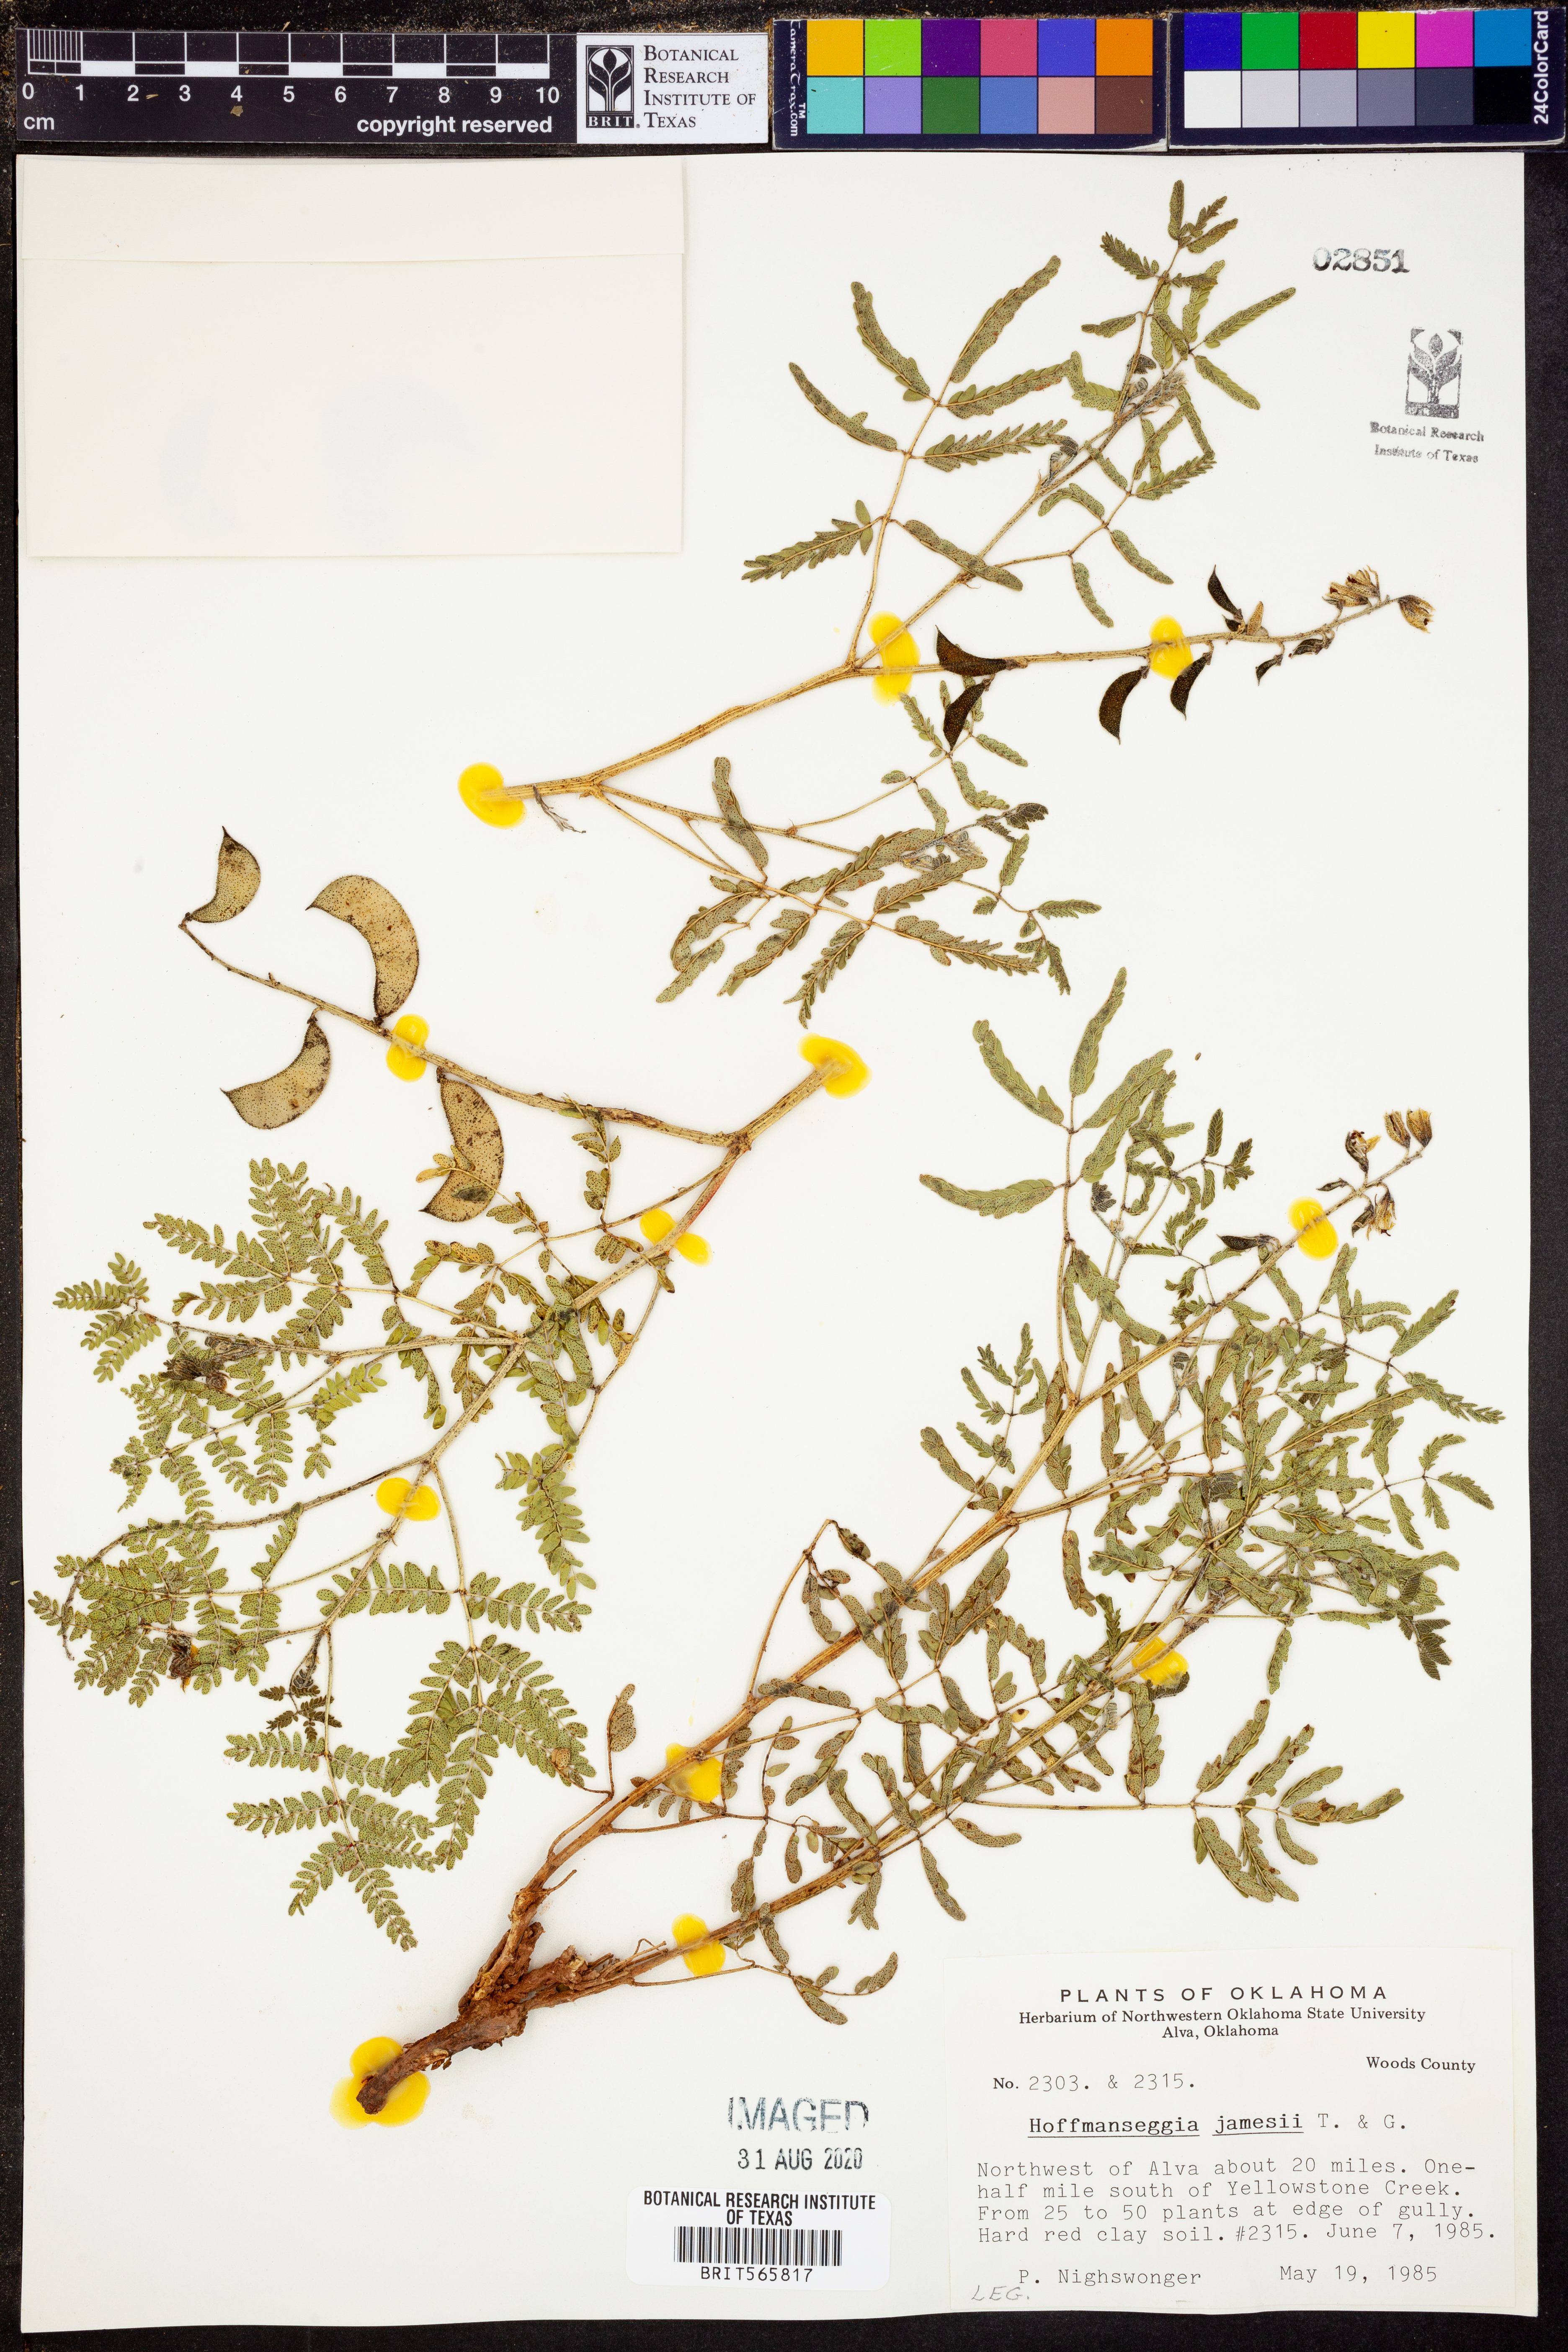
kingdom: Plantae
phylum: Tracheophyta
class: Magnoliopsida
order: Fabales
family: Fabaceae
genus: Pomaria
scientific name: Pomaria jamesii
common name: James' caesalpinia
